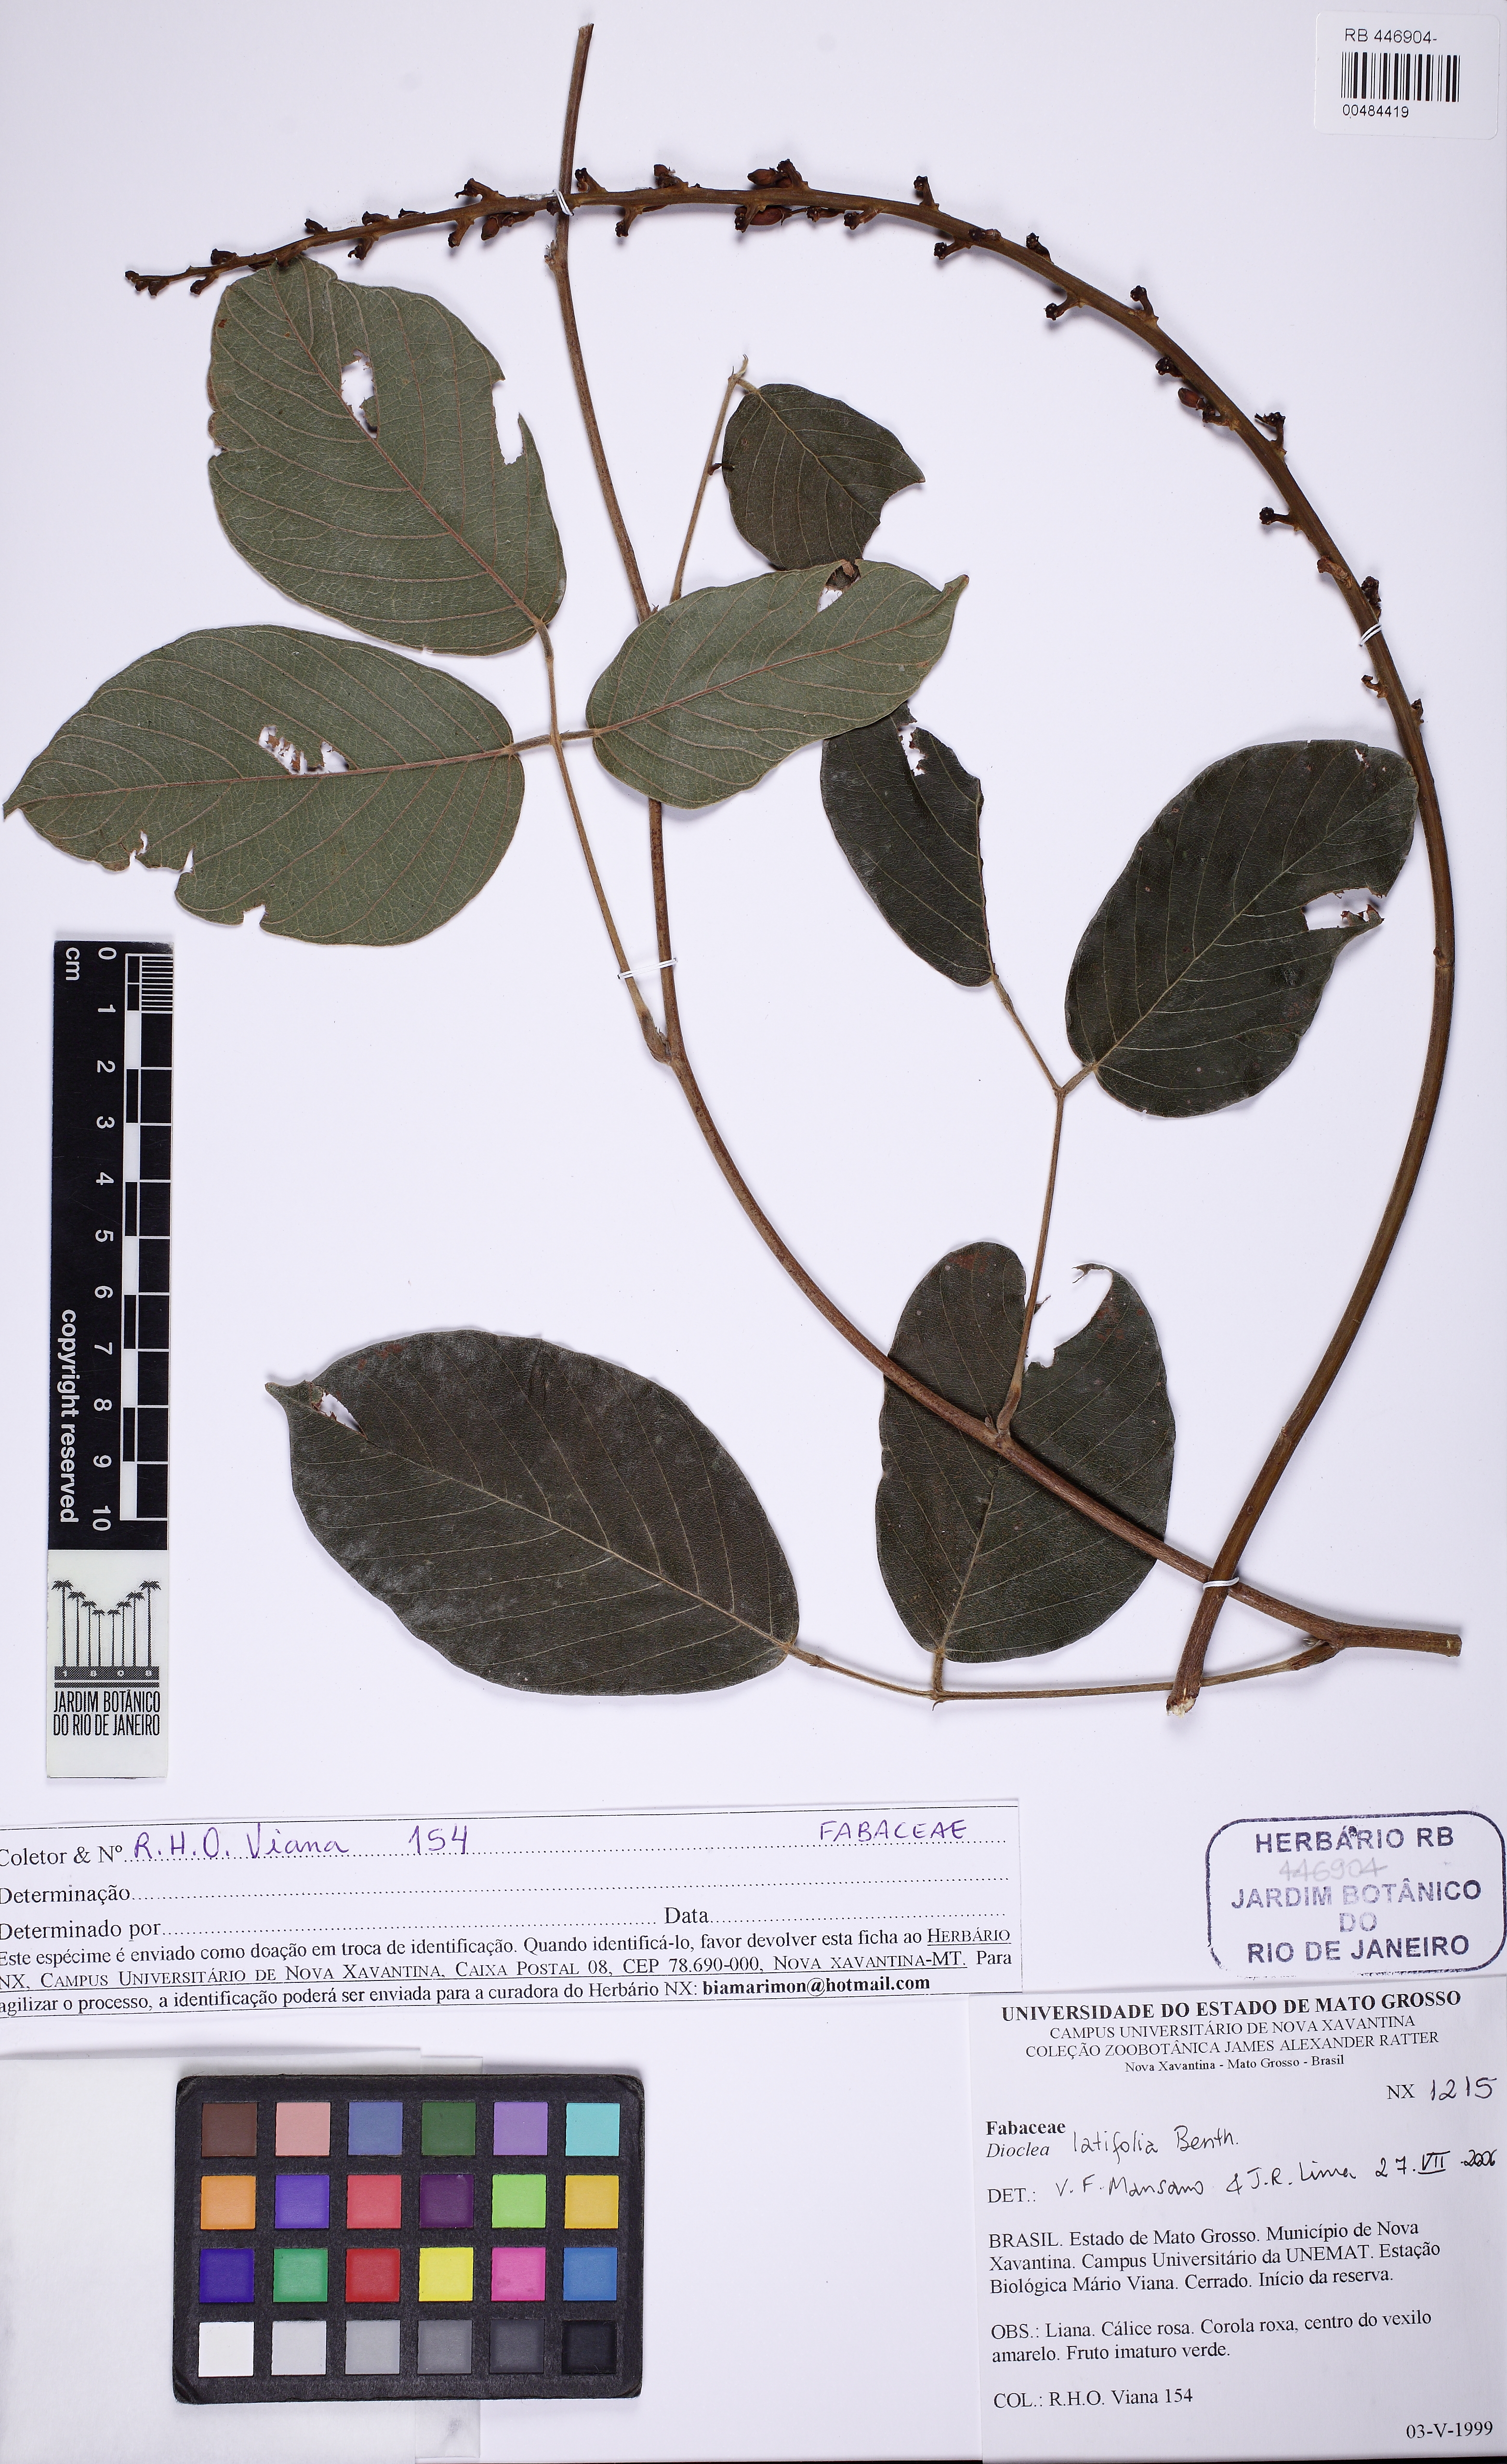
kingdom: Plantae
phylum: Tracheophyta
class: Magnoliopsida
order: Fabales
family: Fabaceae
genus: Macropsychanthus
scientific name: Macropsychanthus latifolius
